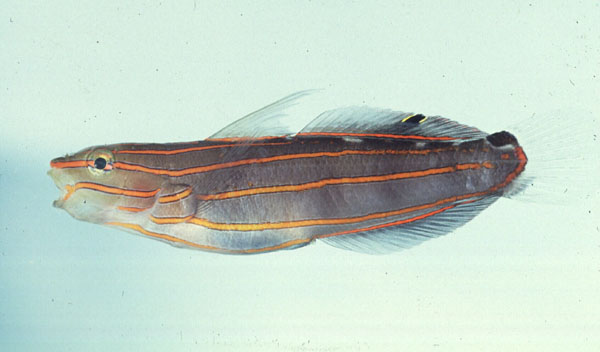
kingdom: Animalia
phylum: Chordata
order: Perciformes
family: Gobiidae
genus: Koumansetta
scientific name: Koumansetta rainfordi
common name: Old glory
